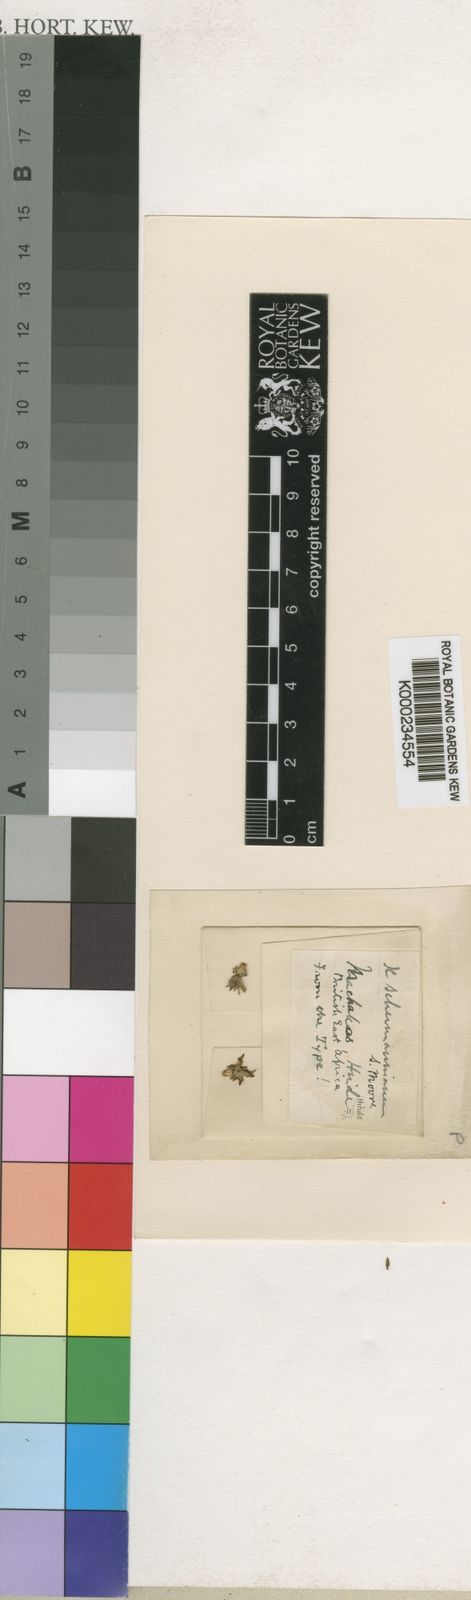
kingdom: Plantae
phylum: Tracheophyta
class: Magnoliopsida
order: Gentianales
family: Apocynaceae
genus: Xysmalobium
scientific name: Xysmalobium heudelotianum
